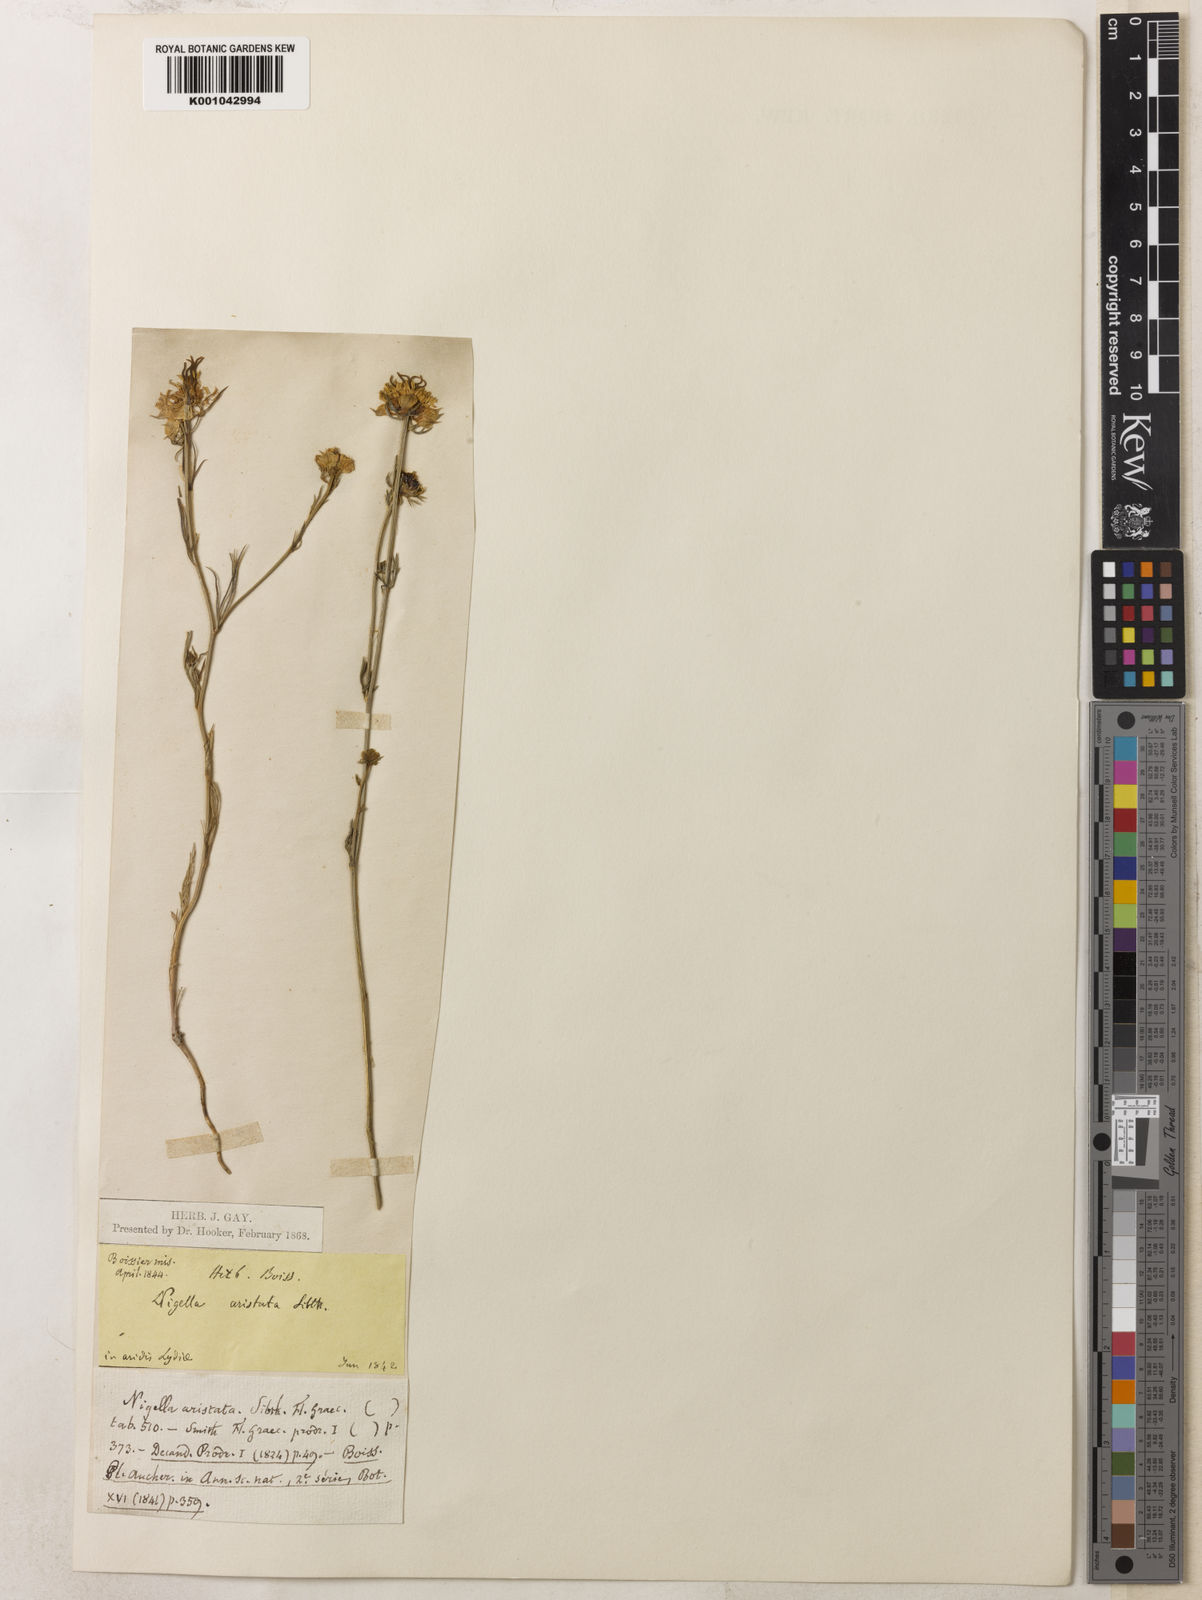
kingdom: Plantae
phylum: Tracheophyta
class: Magnoliopsida
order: Ranunculales
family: Ranunculaceae
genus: Nigella
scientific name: Nigella arvensis
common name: Wild fennel-flower
